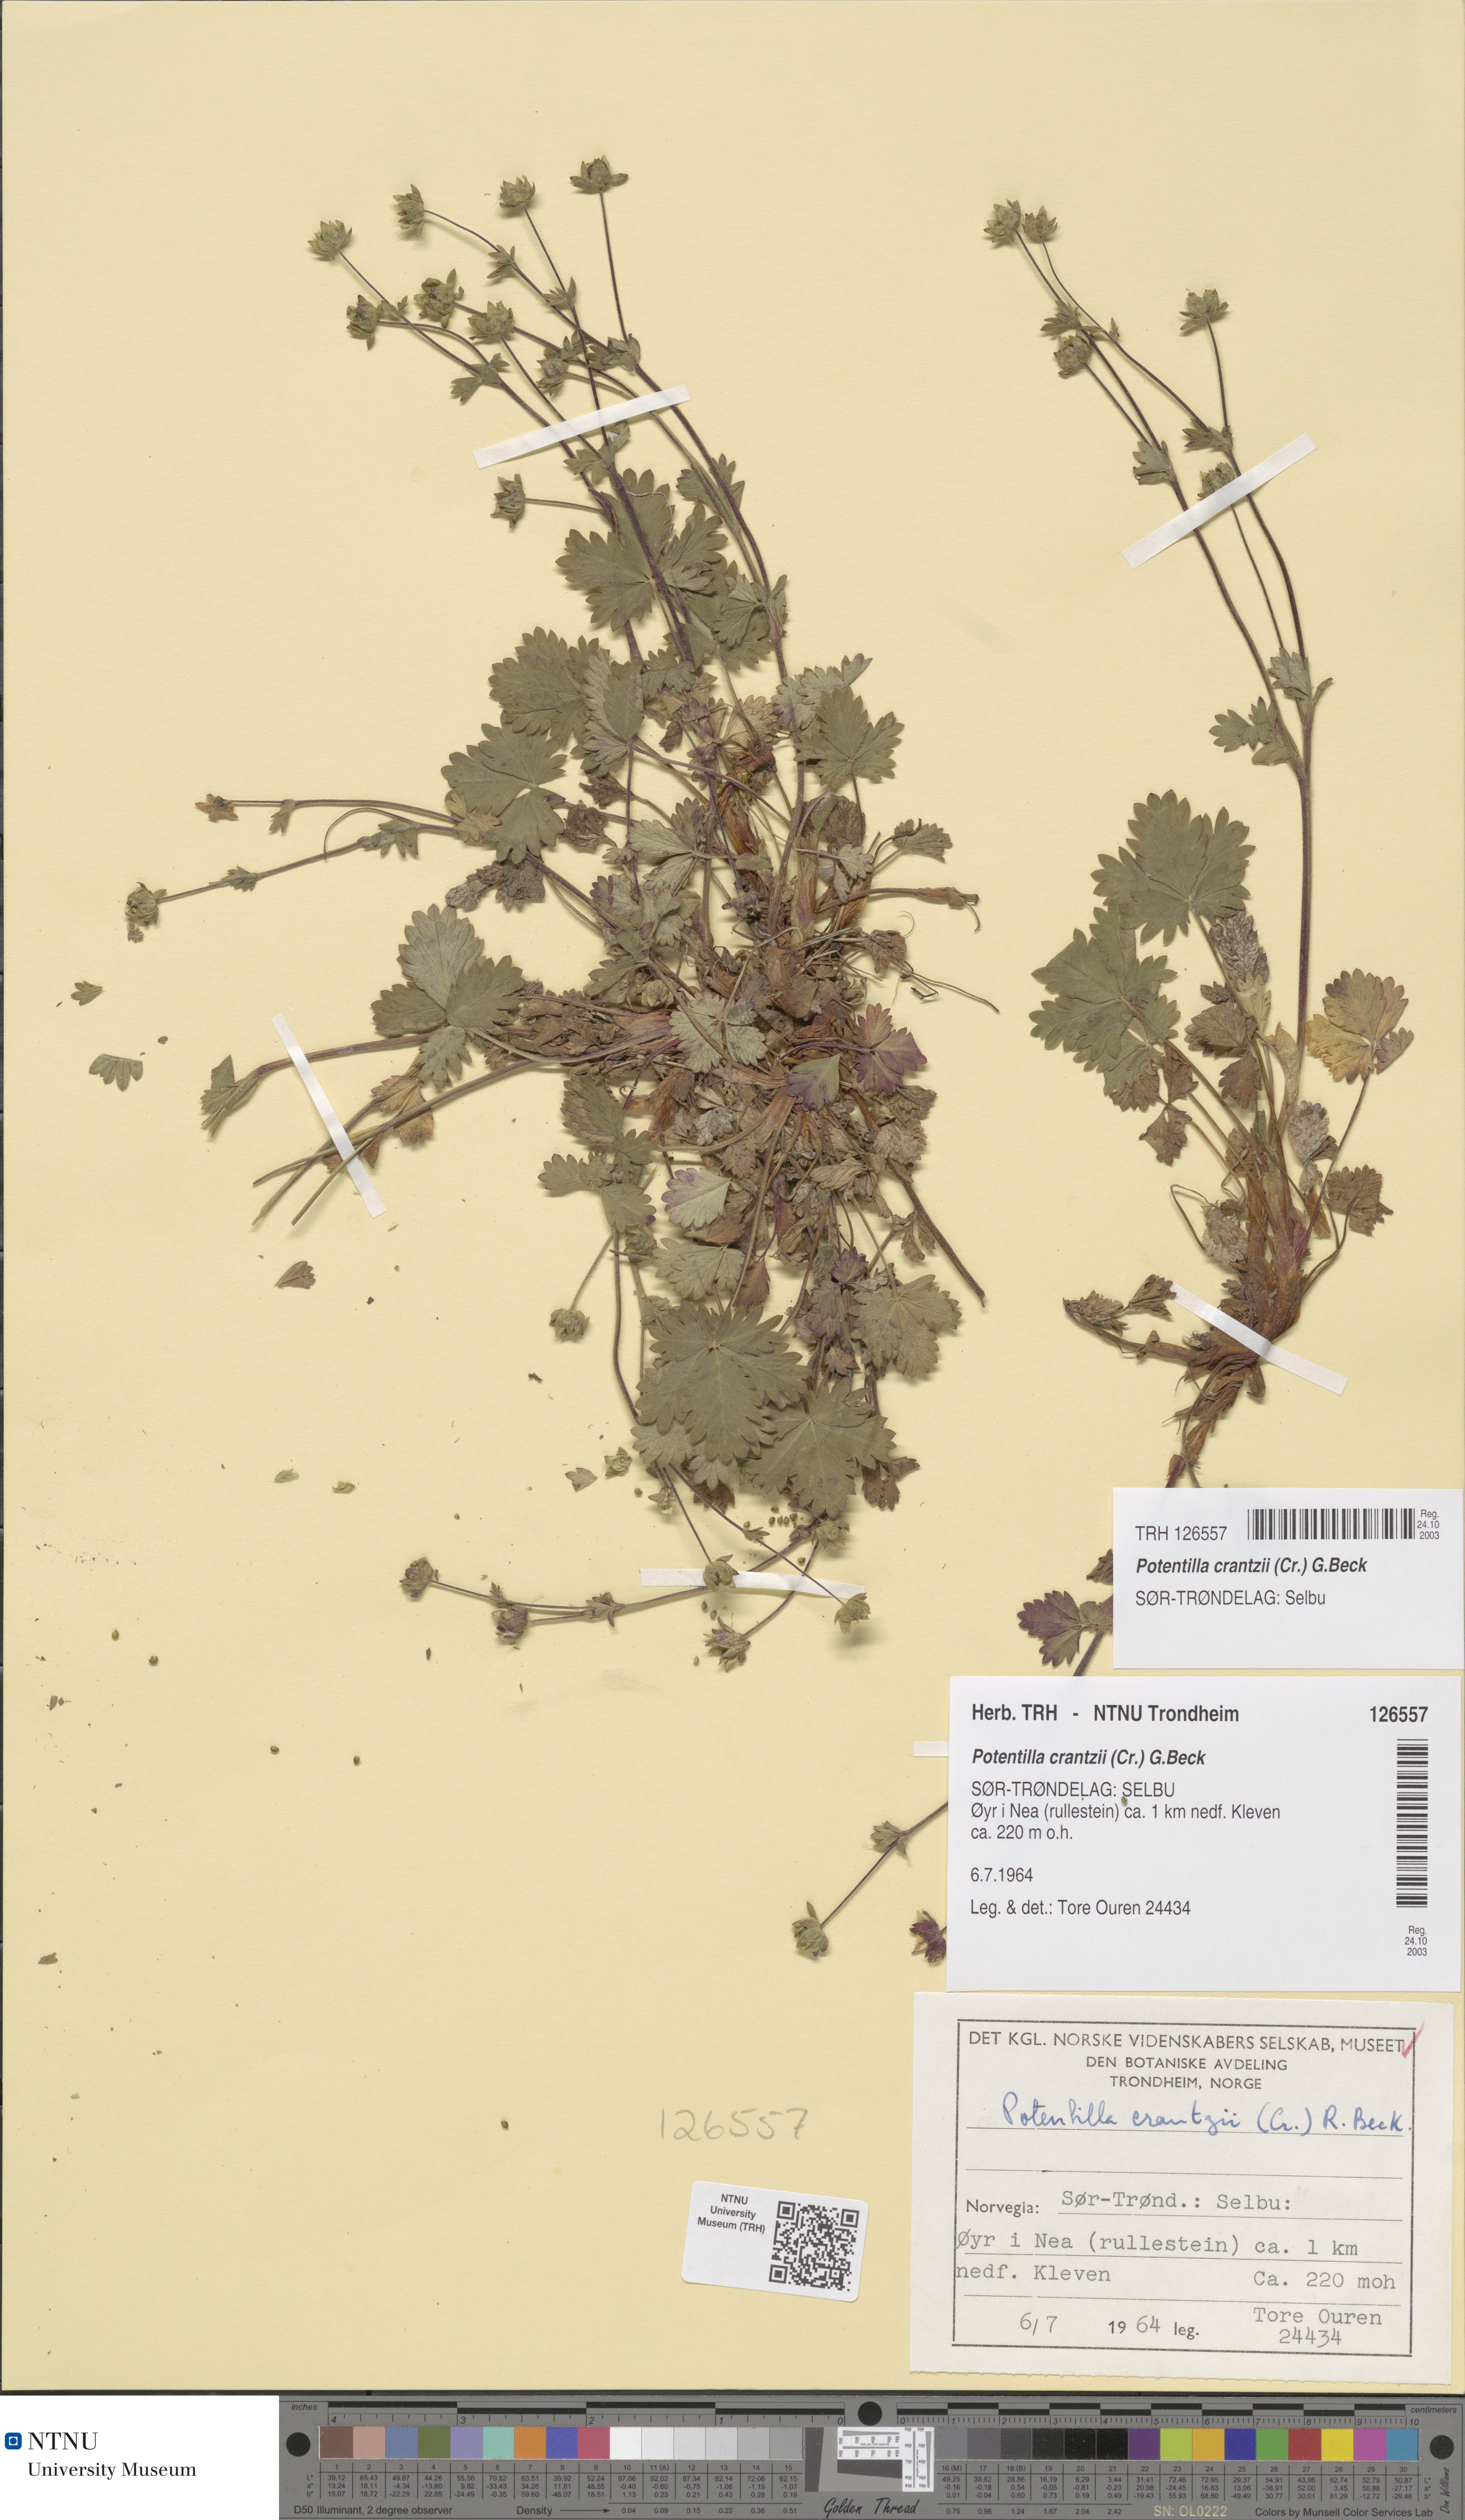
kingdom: Plantae
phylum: Tracheophyta
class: Magnoliopsida
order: Rosales
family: Rosaceae
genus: Potentilla
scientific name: Potentilla crantzii
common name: Alpine cinquefoil
